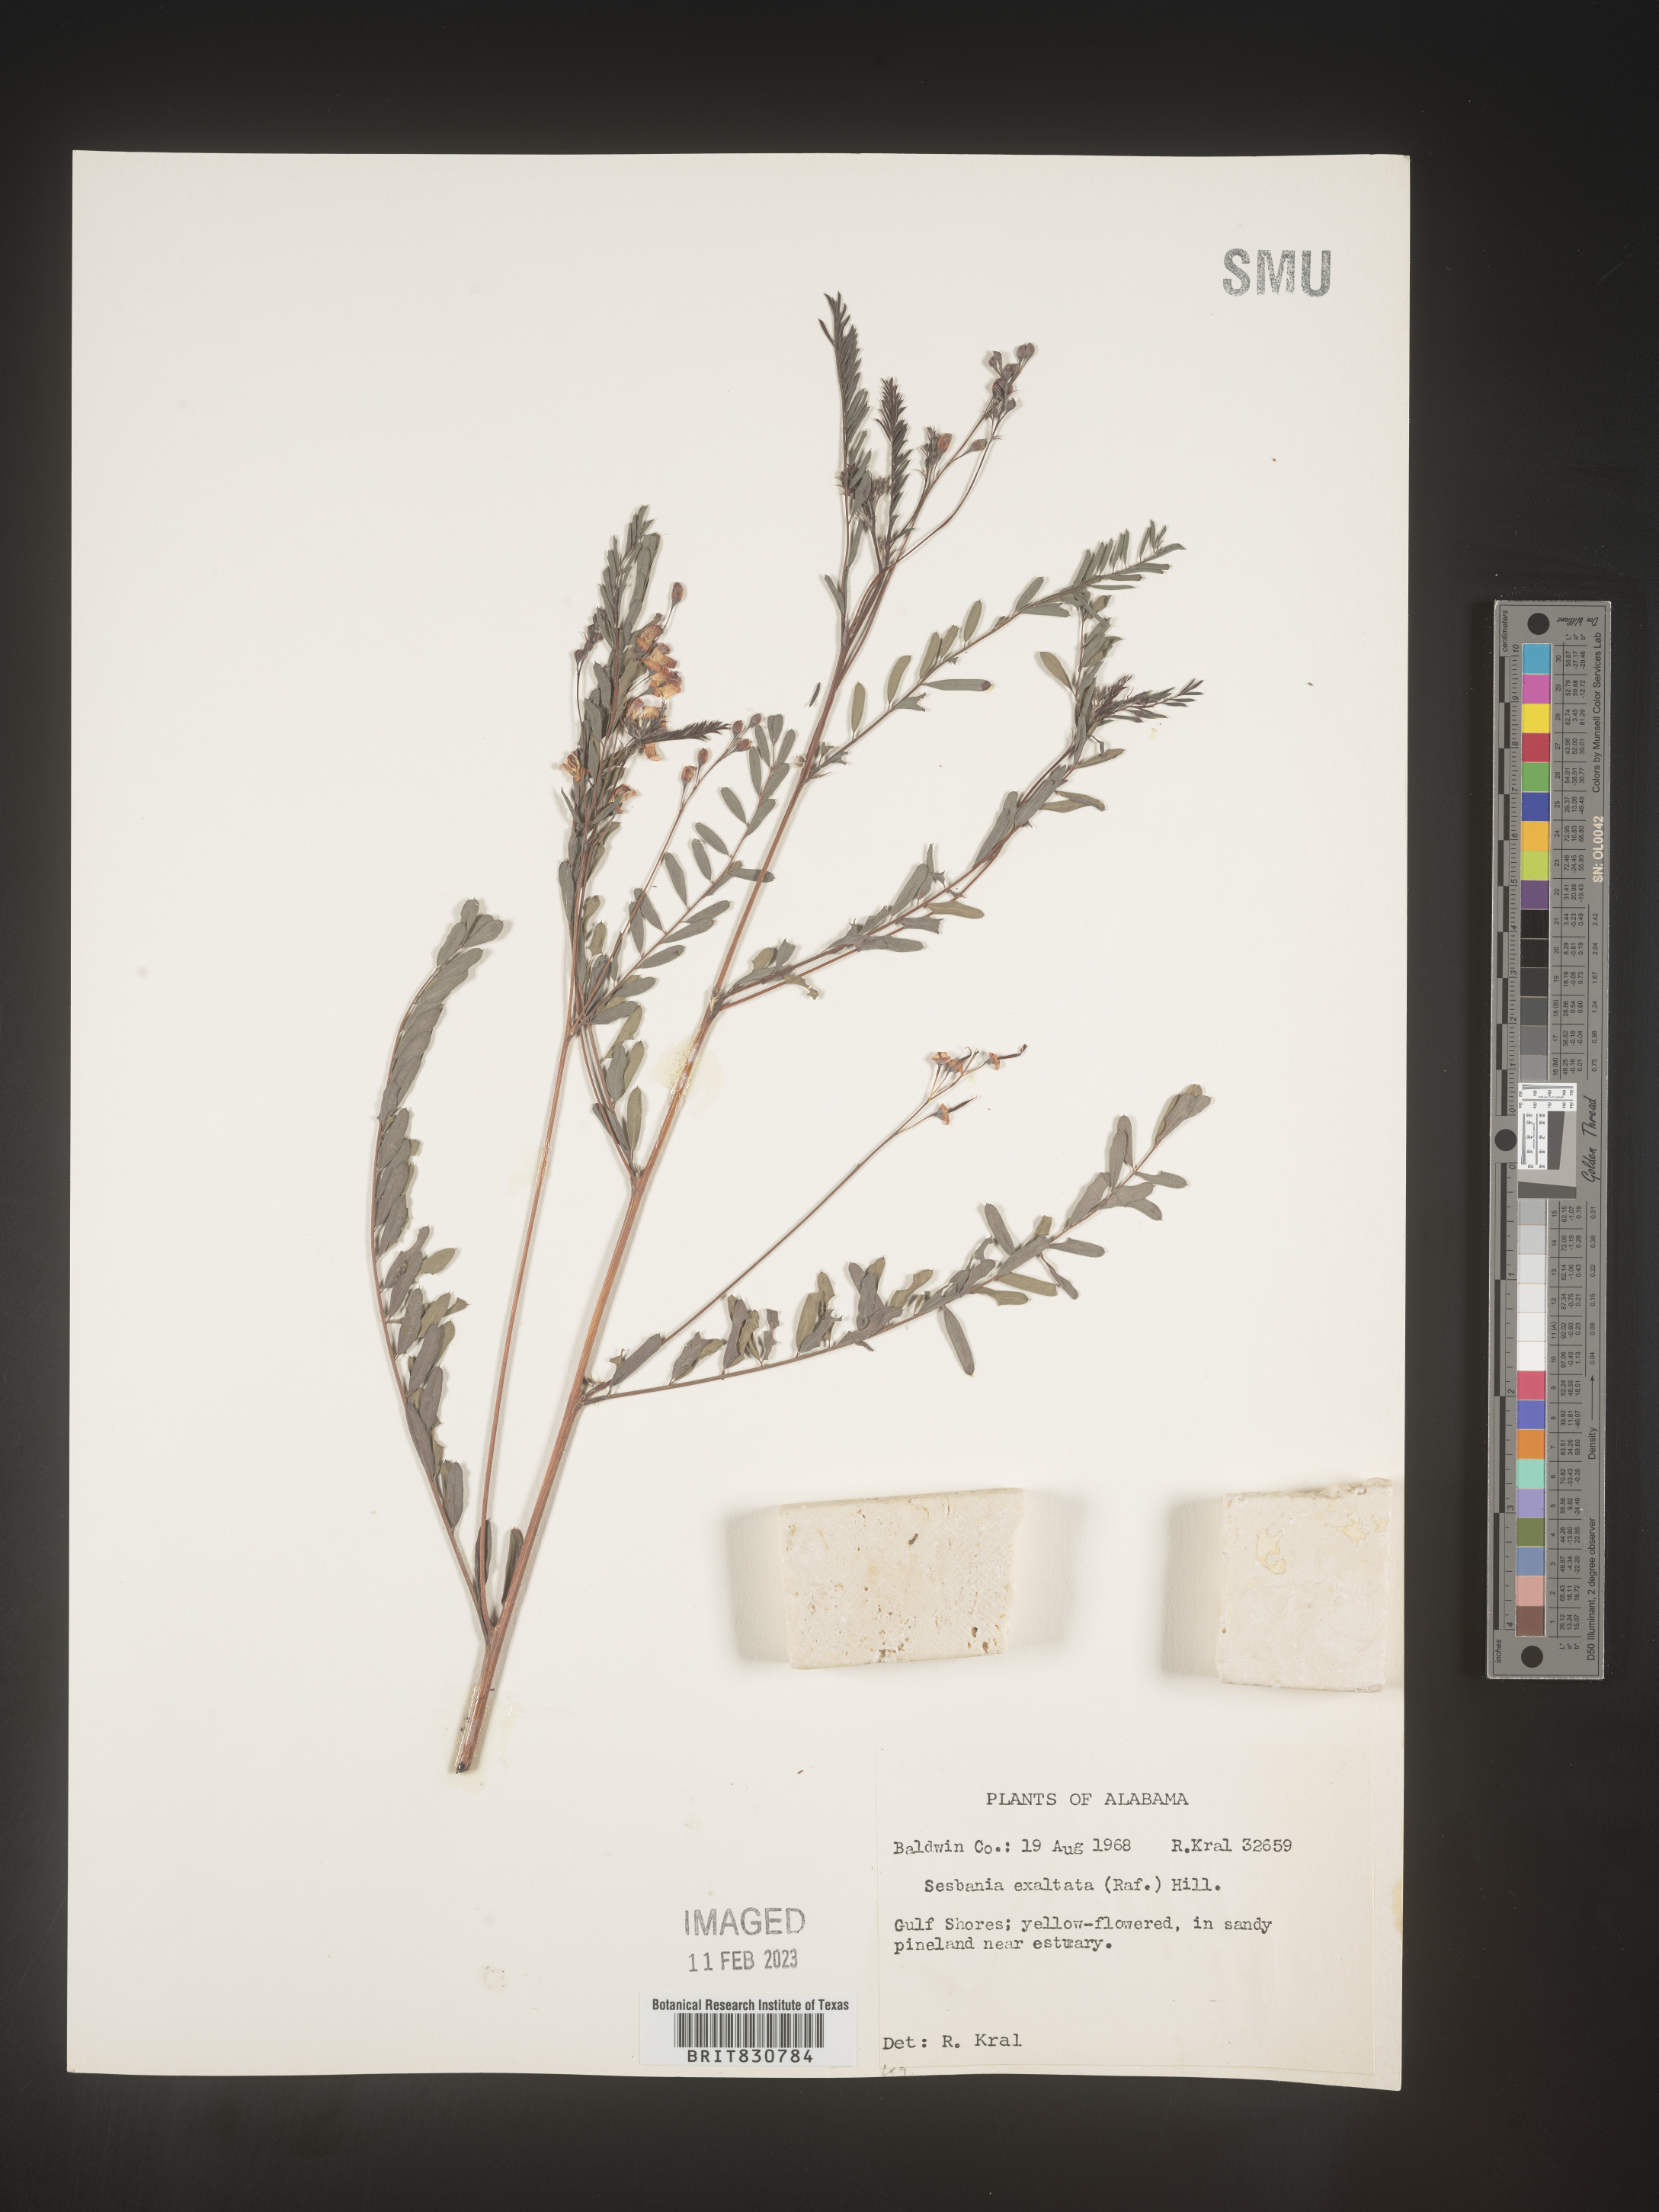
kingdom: Plantae
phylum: Tracheophyta
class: Magnoliopsida
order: Fabales
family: Fabaceae
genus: Sesbania
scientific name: Sesbania vesicaria
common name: Bagpod
